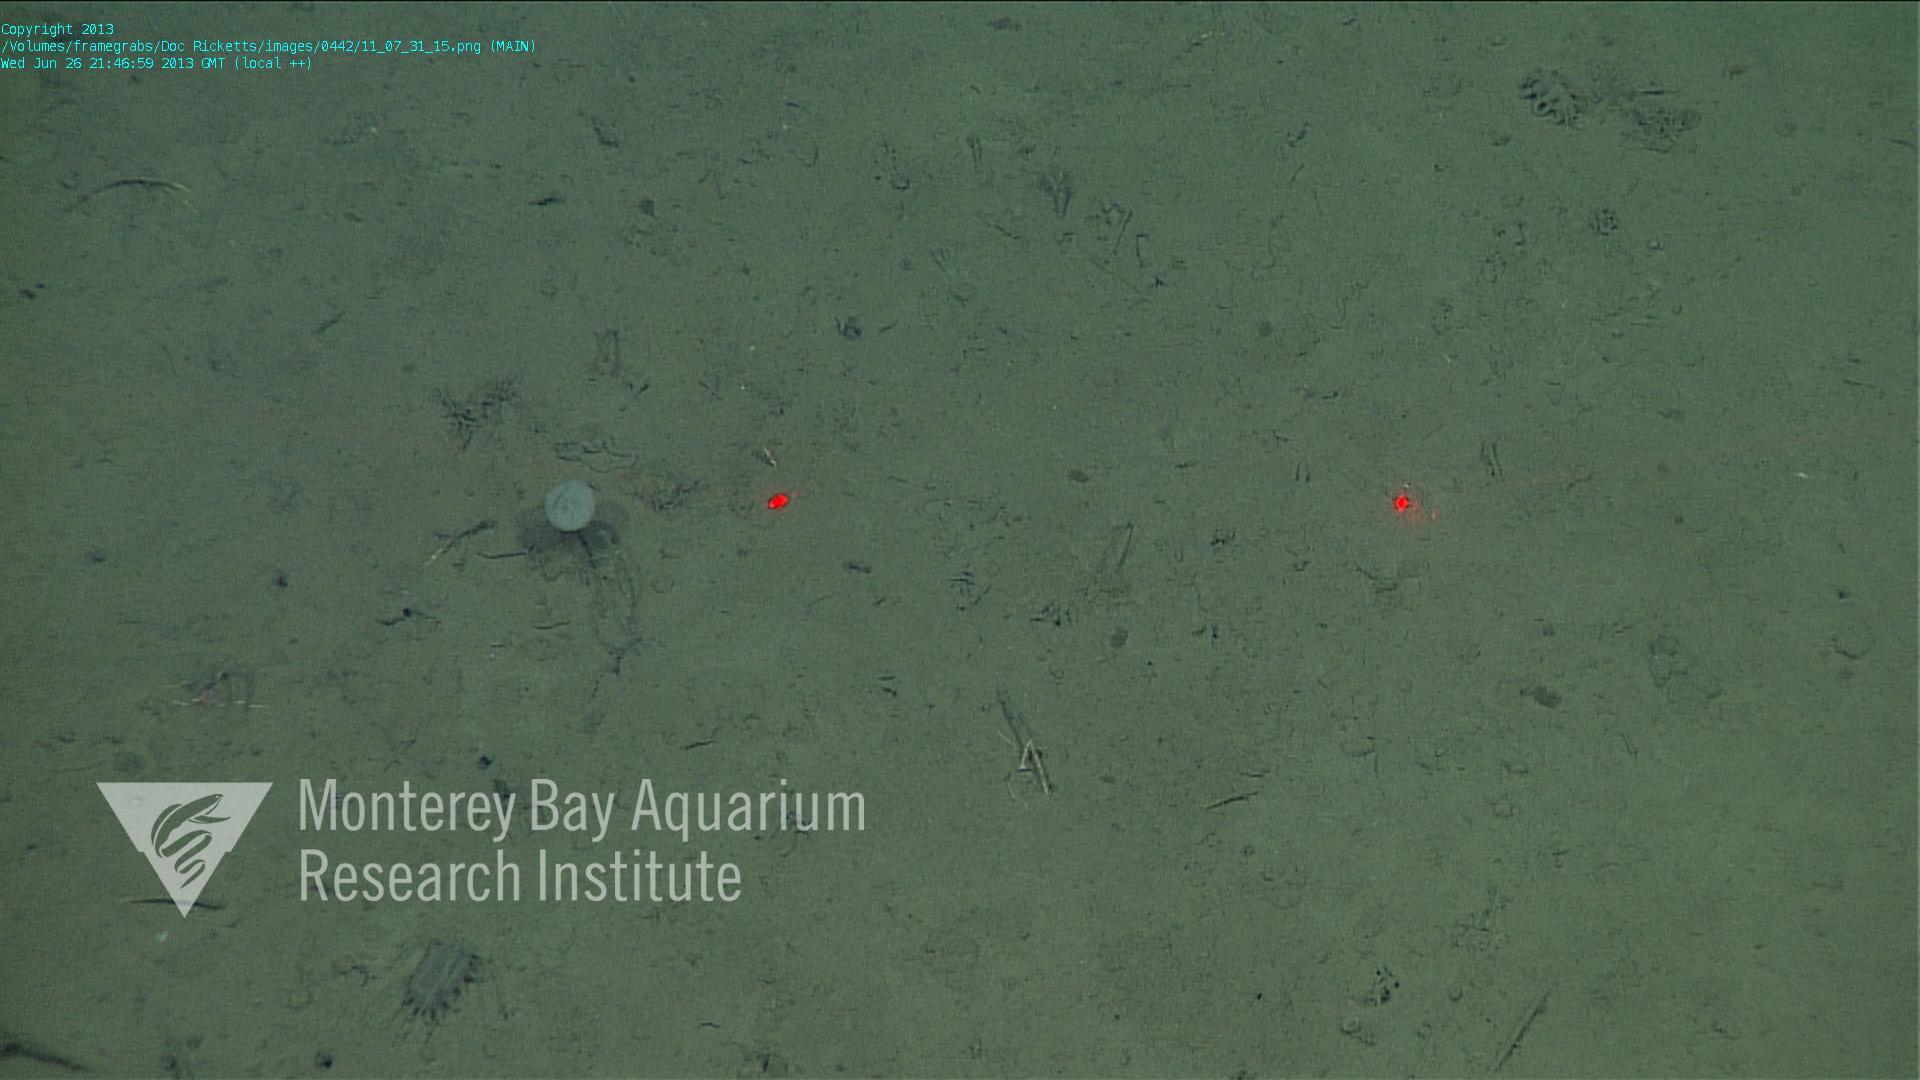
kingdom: Animalia
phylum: Porifera
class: Demospongiae
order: Poecilosclerida
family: Cladorhizidae
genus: Cladorhiza
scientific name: Cladorhiza
